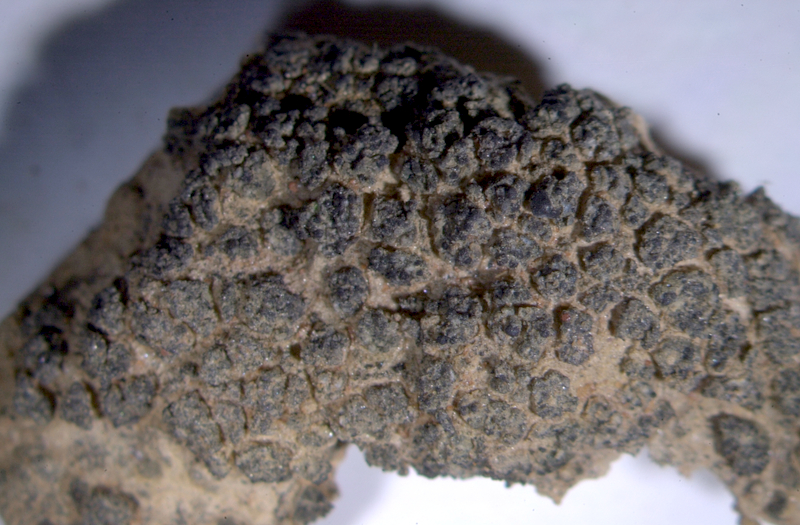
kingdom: Fungi
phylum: Ascomycota
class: Lecanoromycetes
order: Lecanorales
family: Ramalinaceae
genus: Bibbya
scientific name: Bibbya australis
